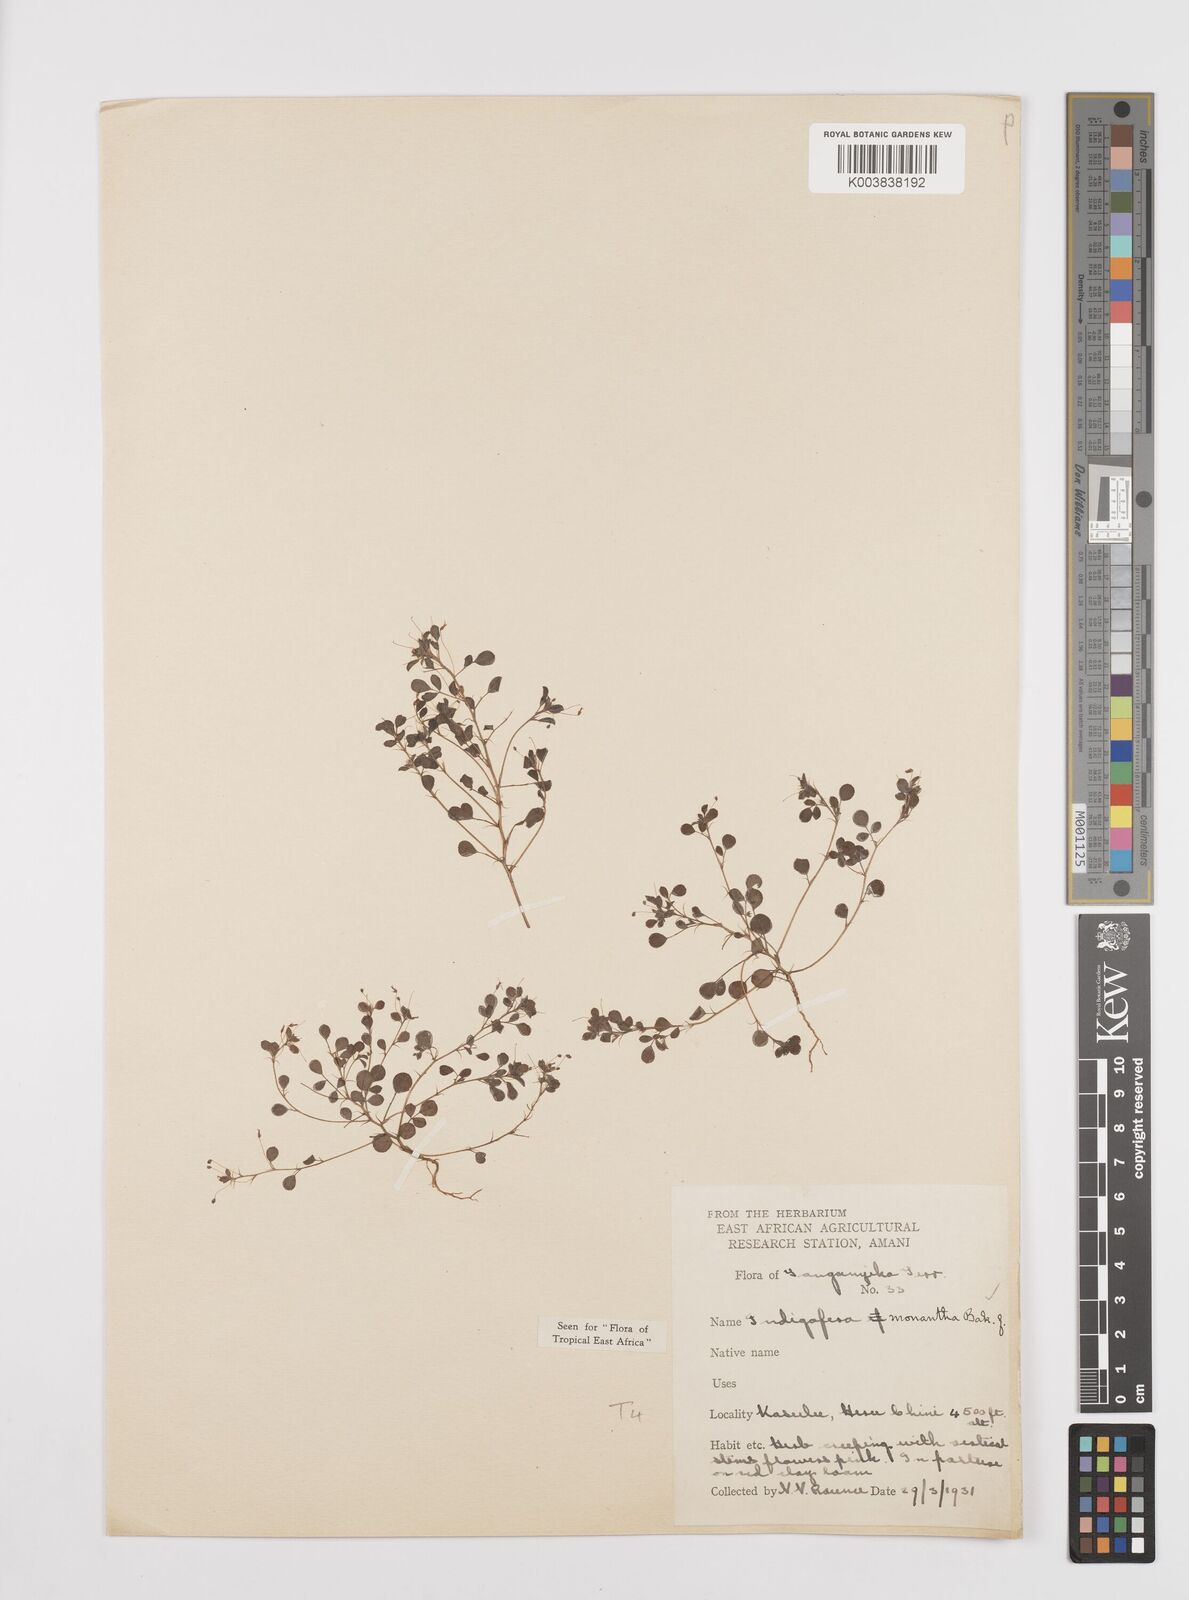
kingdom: Plantae
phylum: Tracheophyta
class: Magnoliopsida
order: Fabales
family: Fabaceae
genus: Indigofera
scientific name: Indigofera monantha
